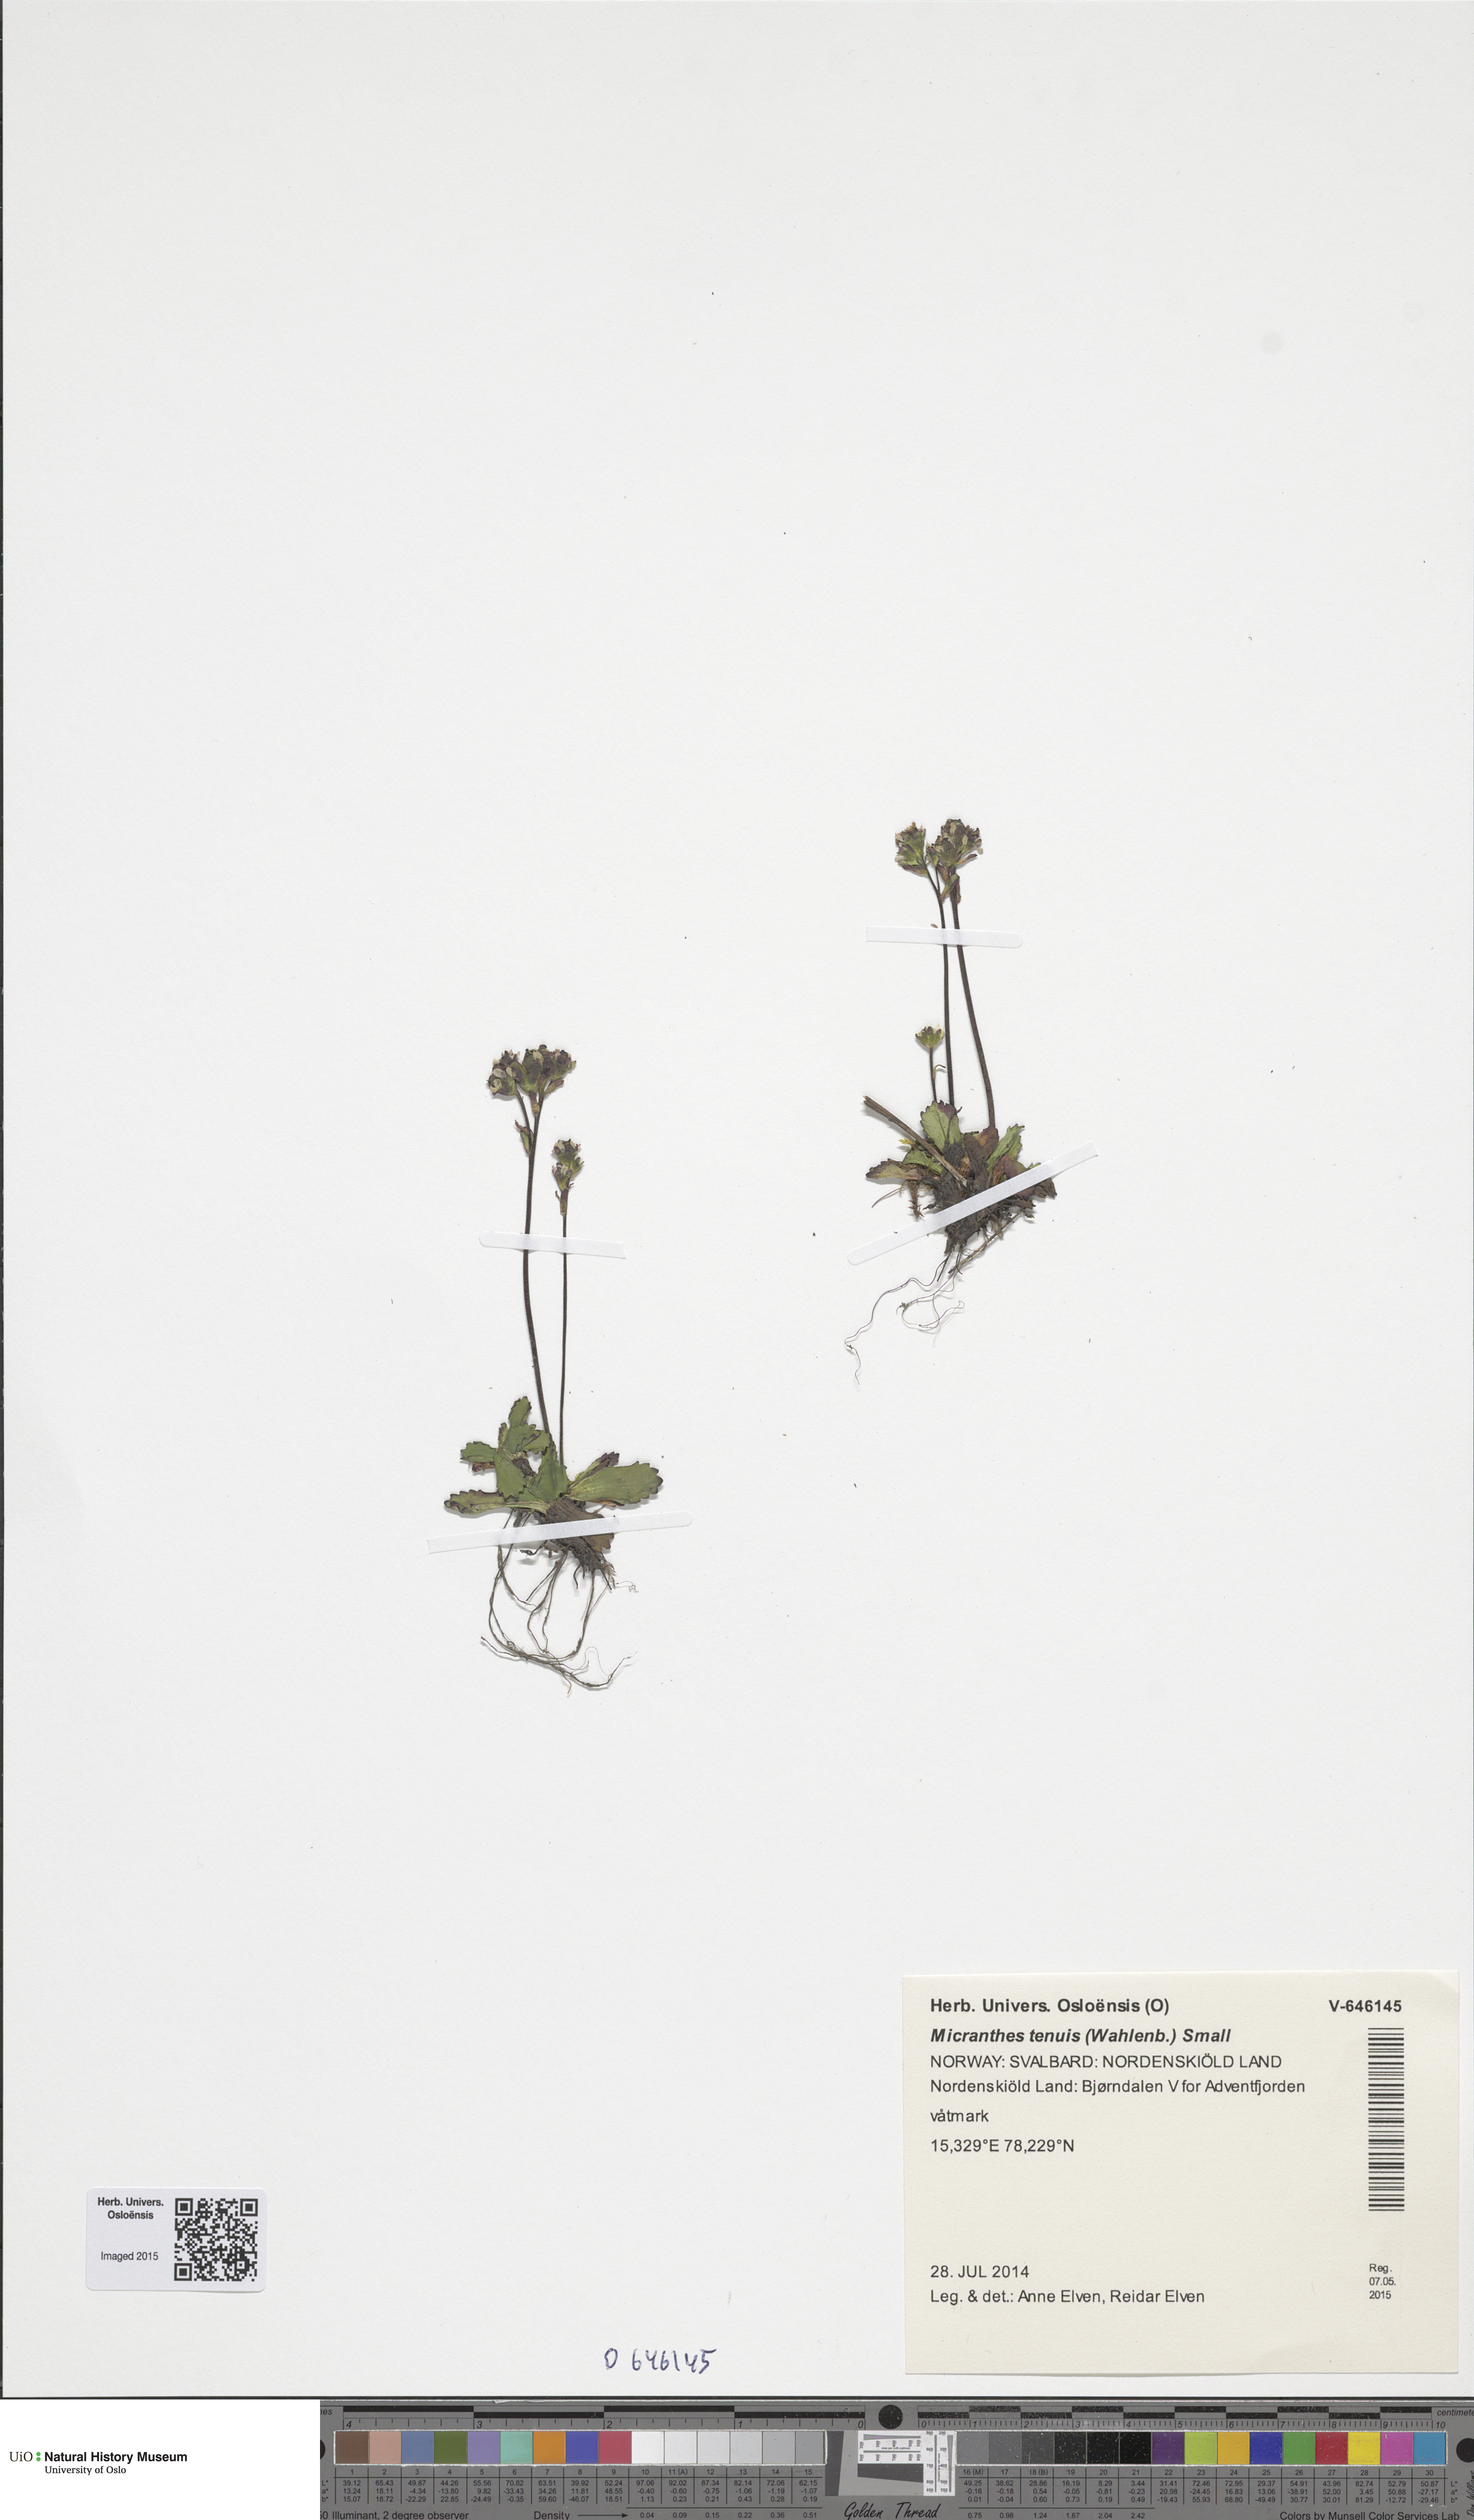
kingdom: Plantae
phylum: Tracheophyta
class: Magnoliopsida
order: Saxifragales
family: Saxifragaceae
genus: Micranthes
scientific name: Micranthes tenuis
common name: Ottertail pass saxifrage
